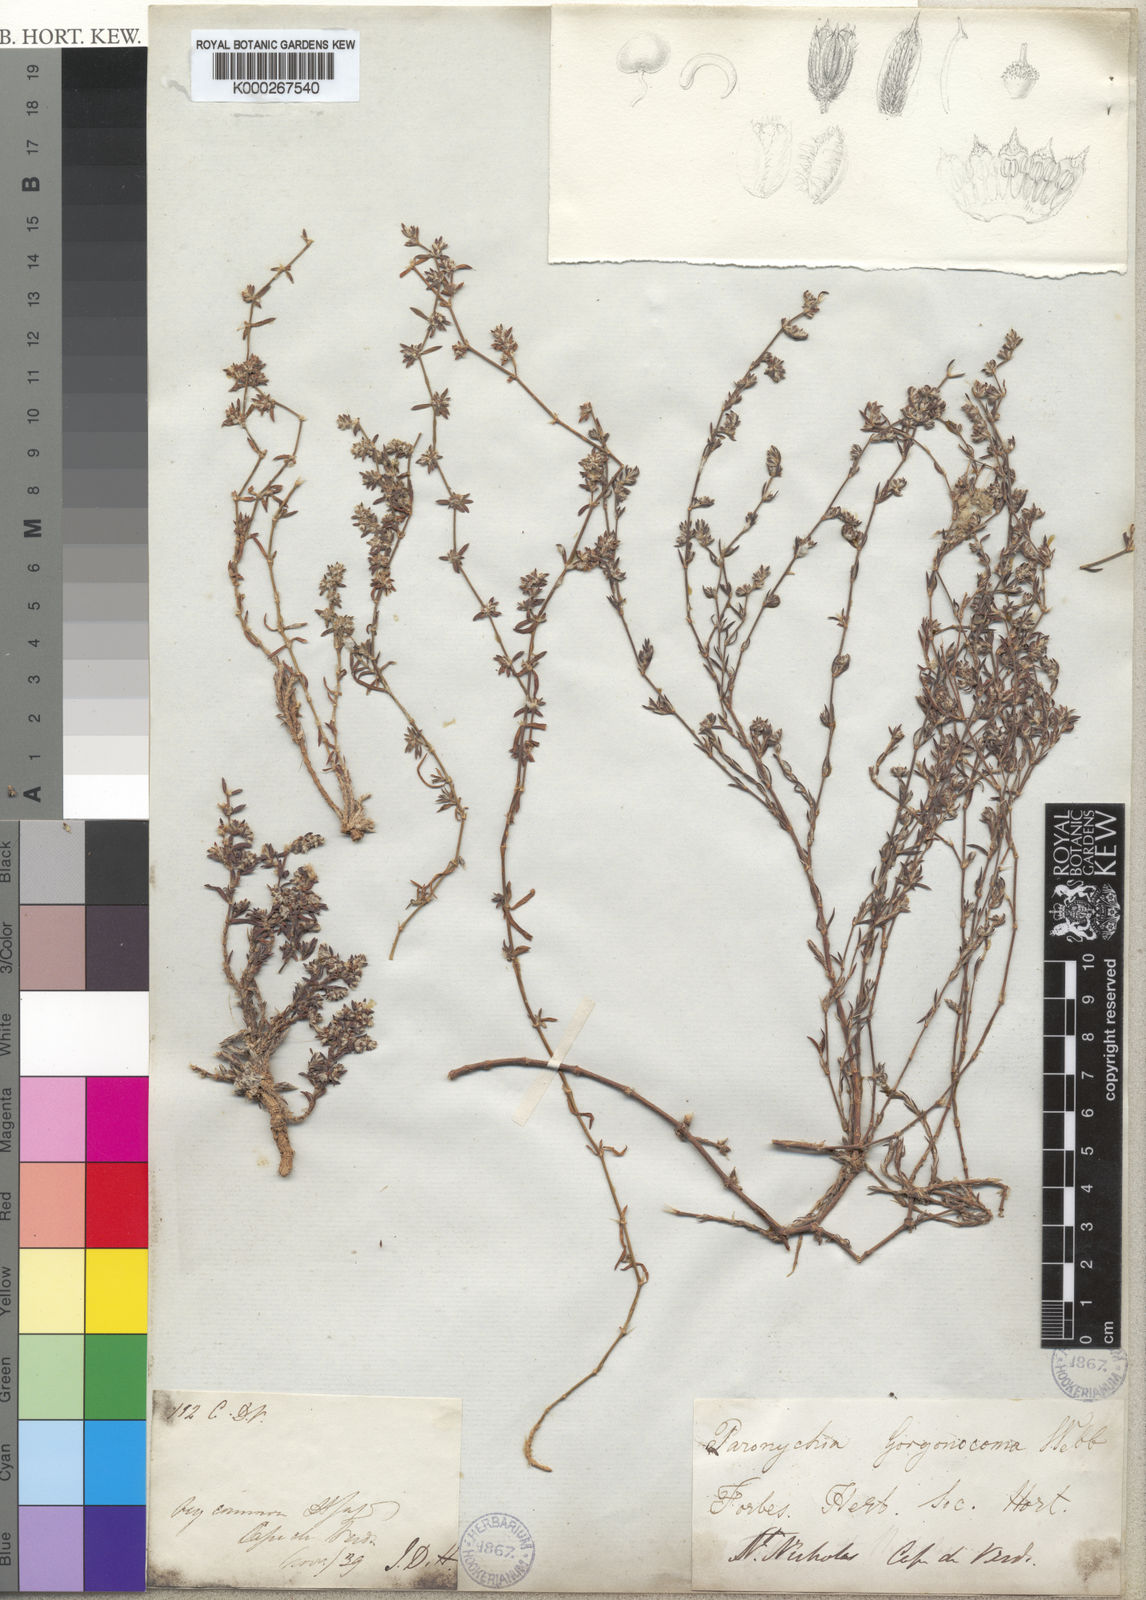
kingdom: Plantae
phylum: Tracheophyta
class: Magnoliopsida
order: Caryophyllales
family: Caryophyllaceae
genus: Paronychia
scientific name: Paronychia
